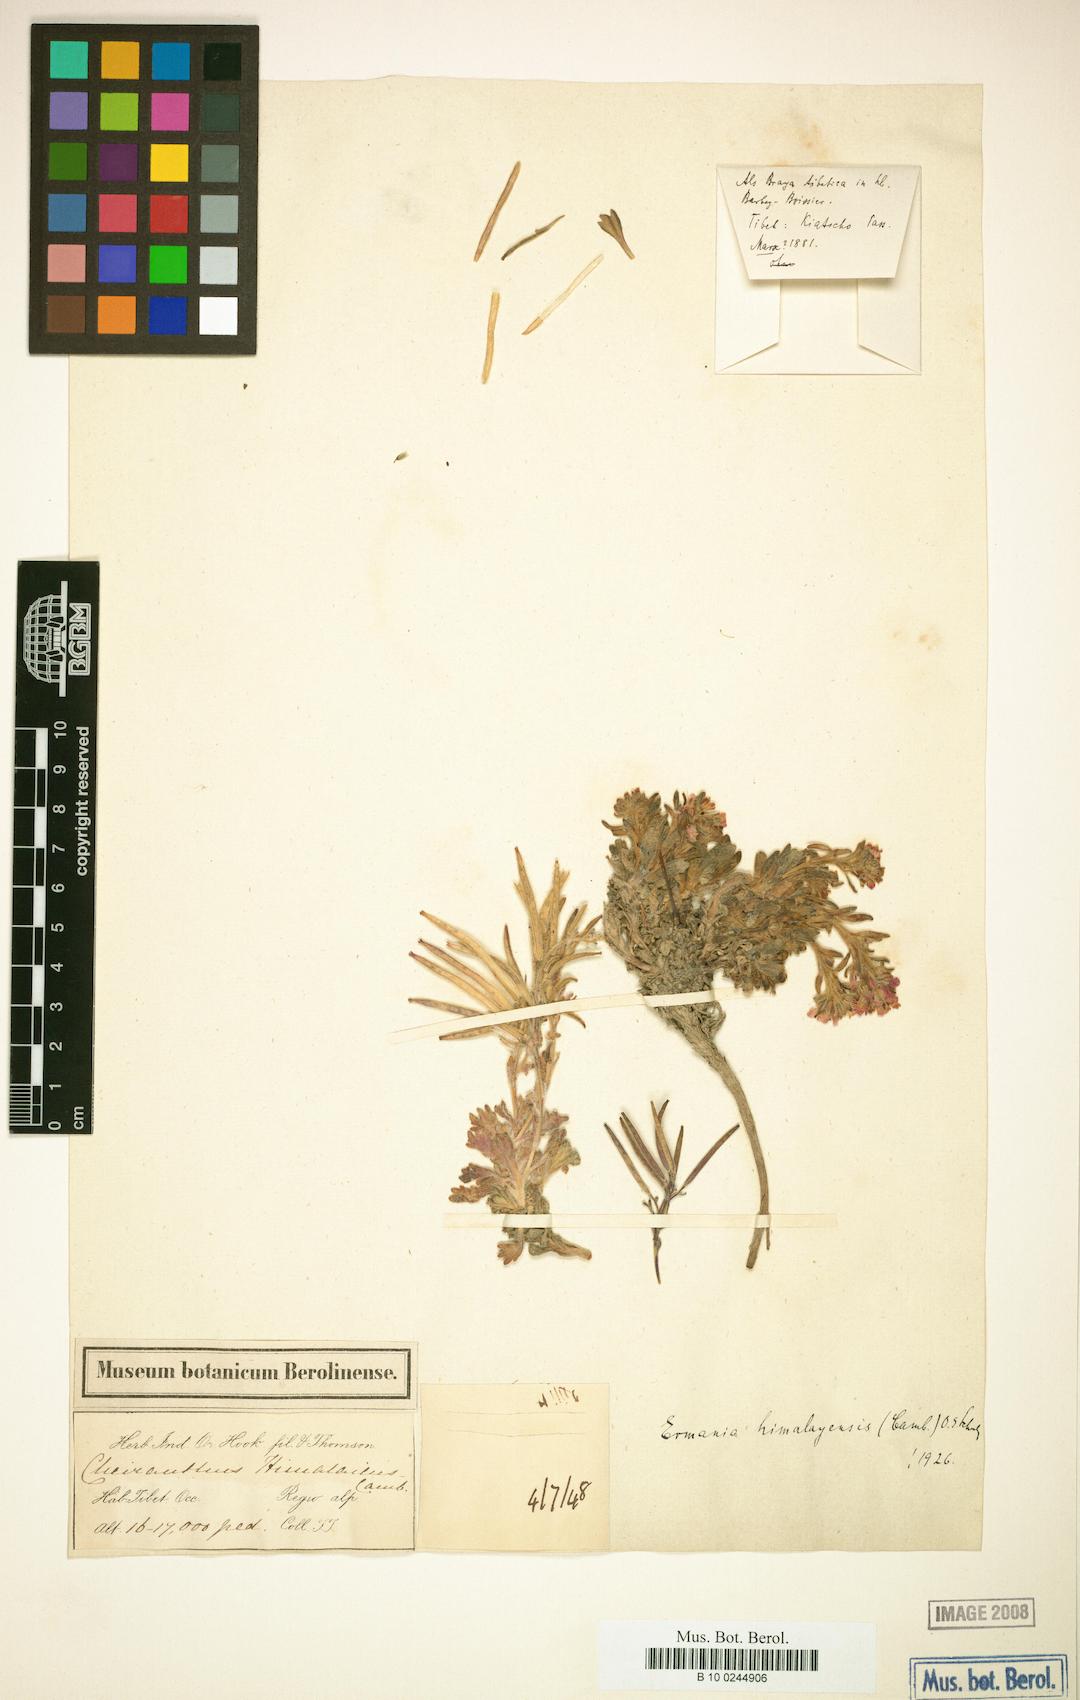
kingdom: Plantae
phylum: Tracheophyta
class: Magnoliopsida
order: Brassicales
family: Brassicaceae
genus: Solms-laubachia
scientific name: Solms-laubachia himalayensis
